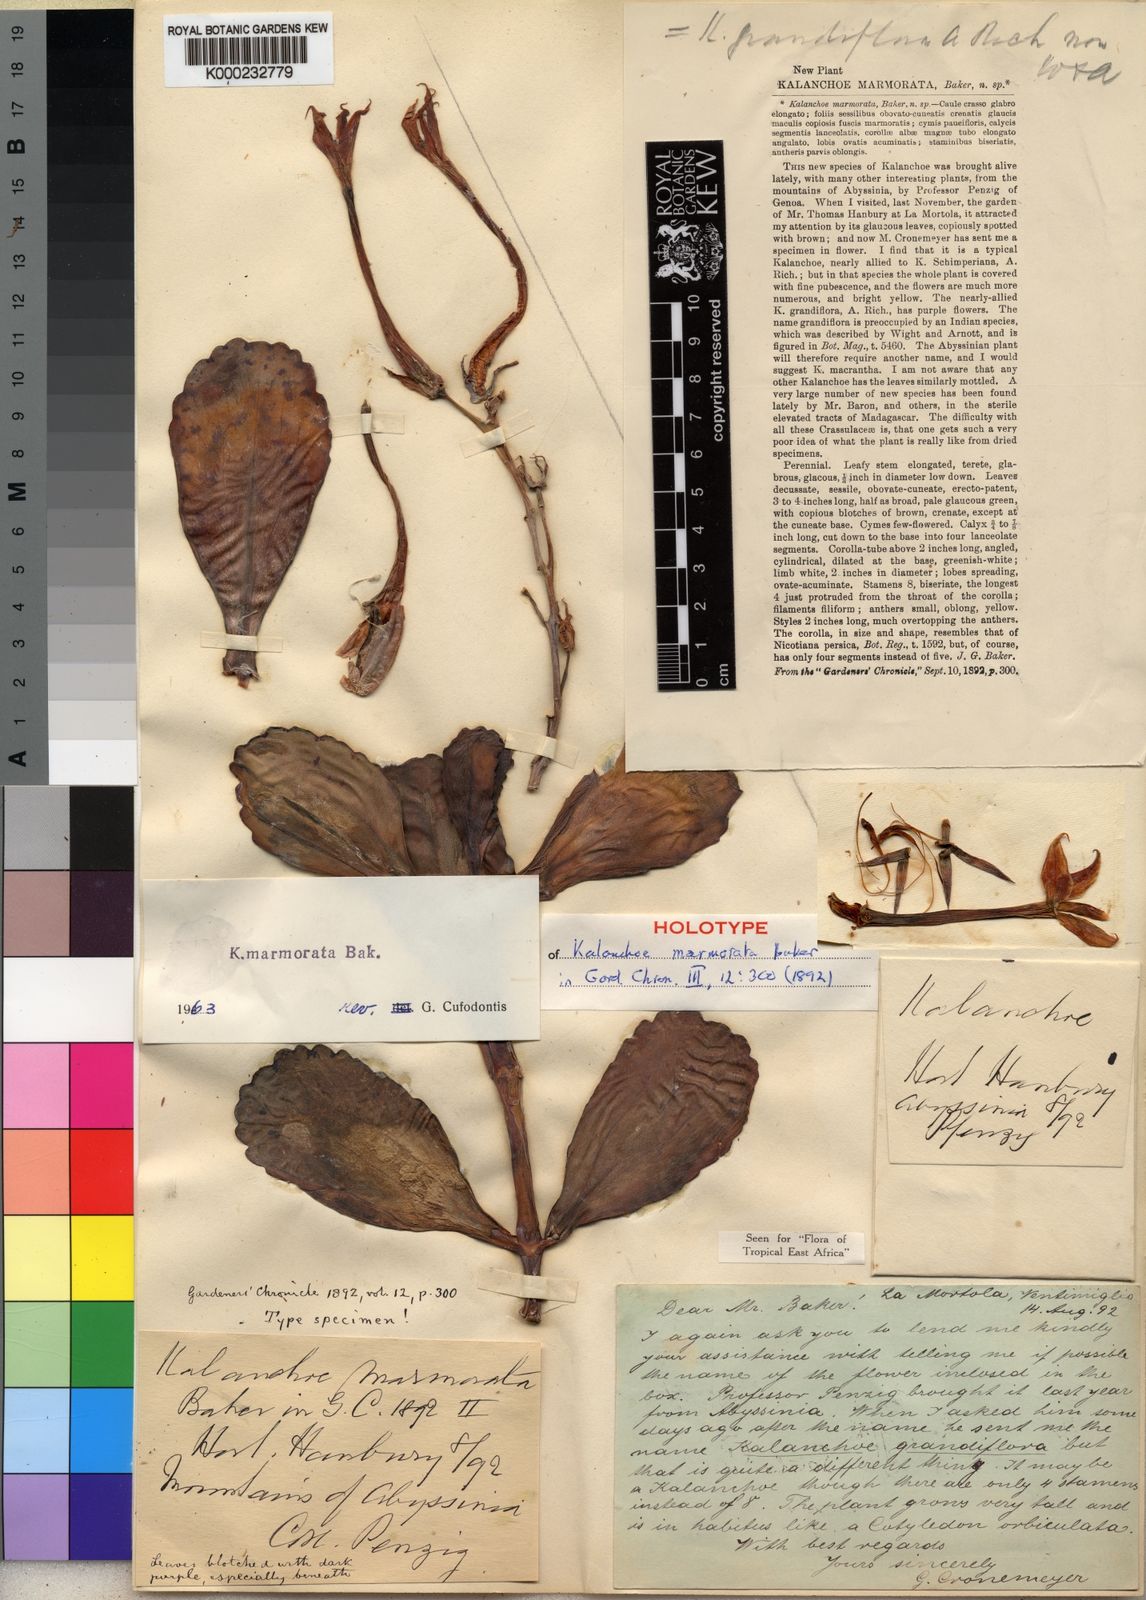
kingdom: Plantae
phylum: Tracheophyta
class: Magnoliopsida
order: Saxifragales
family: Crassulaceae
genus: Kalanchoe
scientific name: Kalanchoe marmorata
